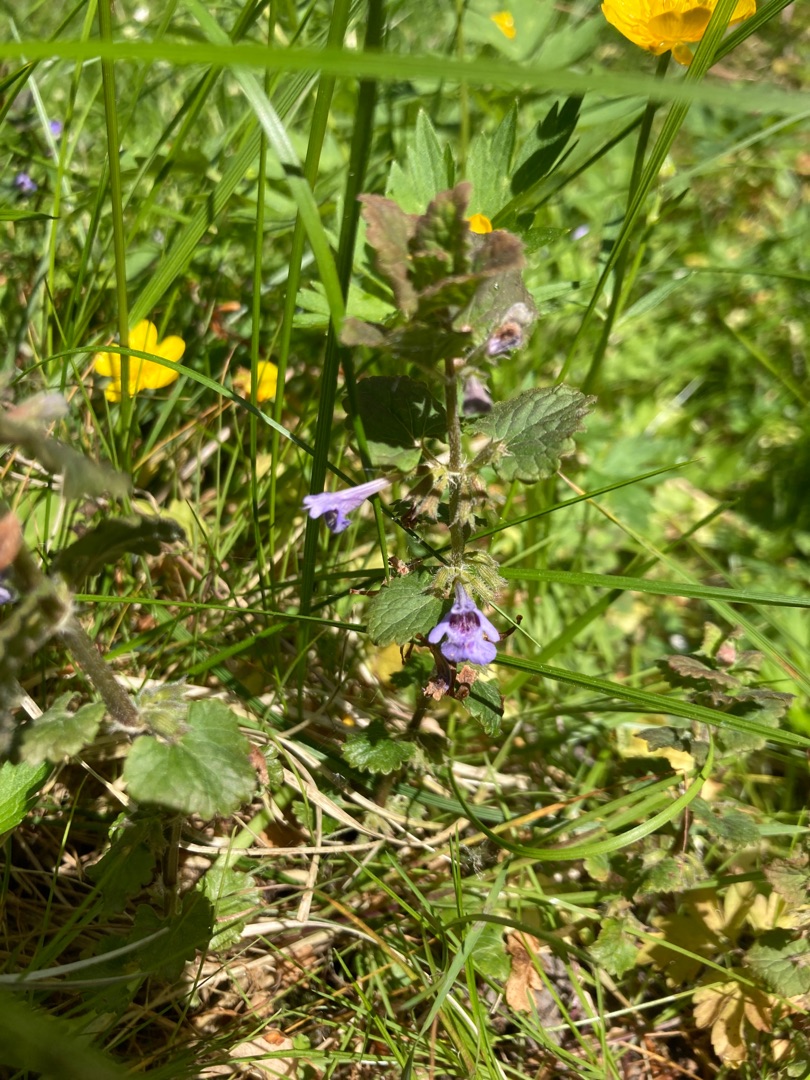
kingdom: Plantae
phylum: Tracheophyta
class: Magnoliopsida
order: Lamiales
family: Lamiaceae
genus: Glechoma
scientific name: Glechoma hederacea
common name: Korsknap
